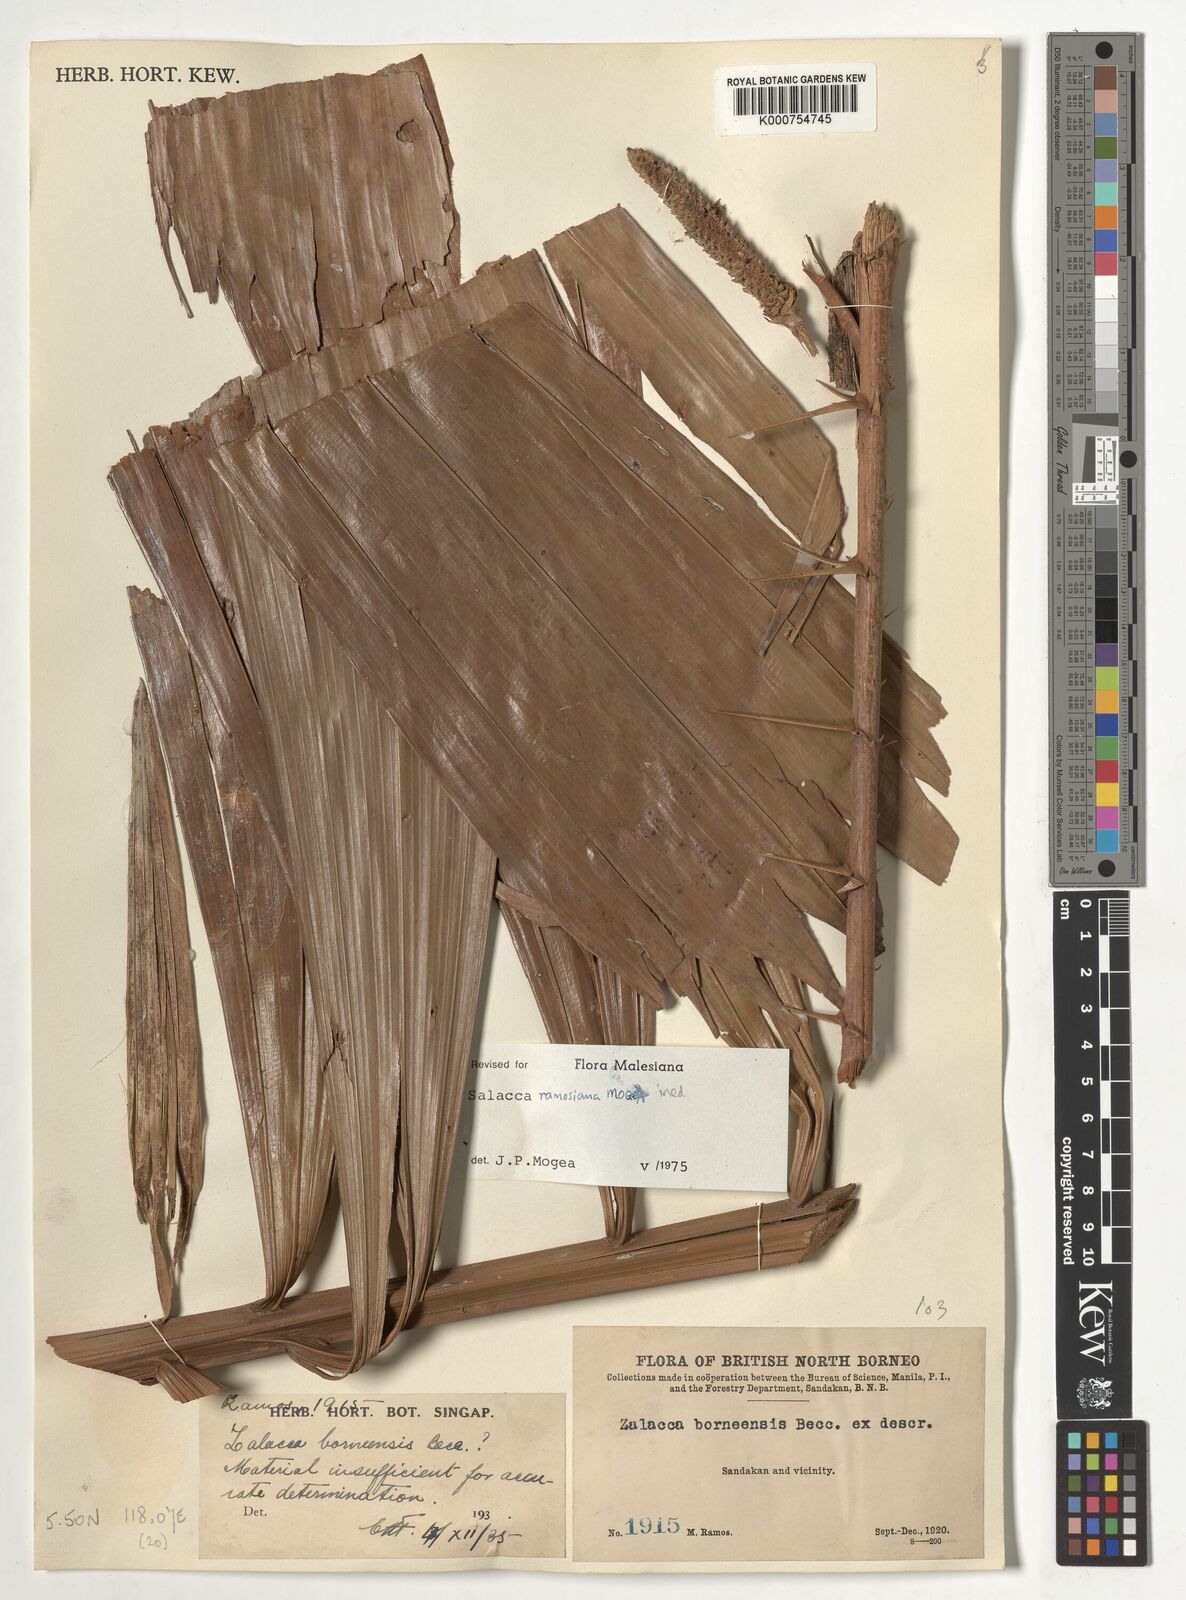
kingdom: Plantae
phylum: Tracheophyta
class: Liliopsida
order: Arecales
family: Arecaceae
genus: Salacca
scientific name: Salacca ramosiana
